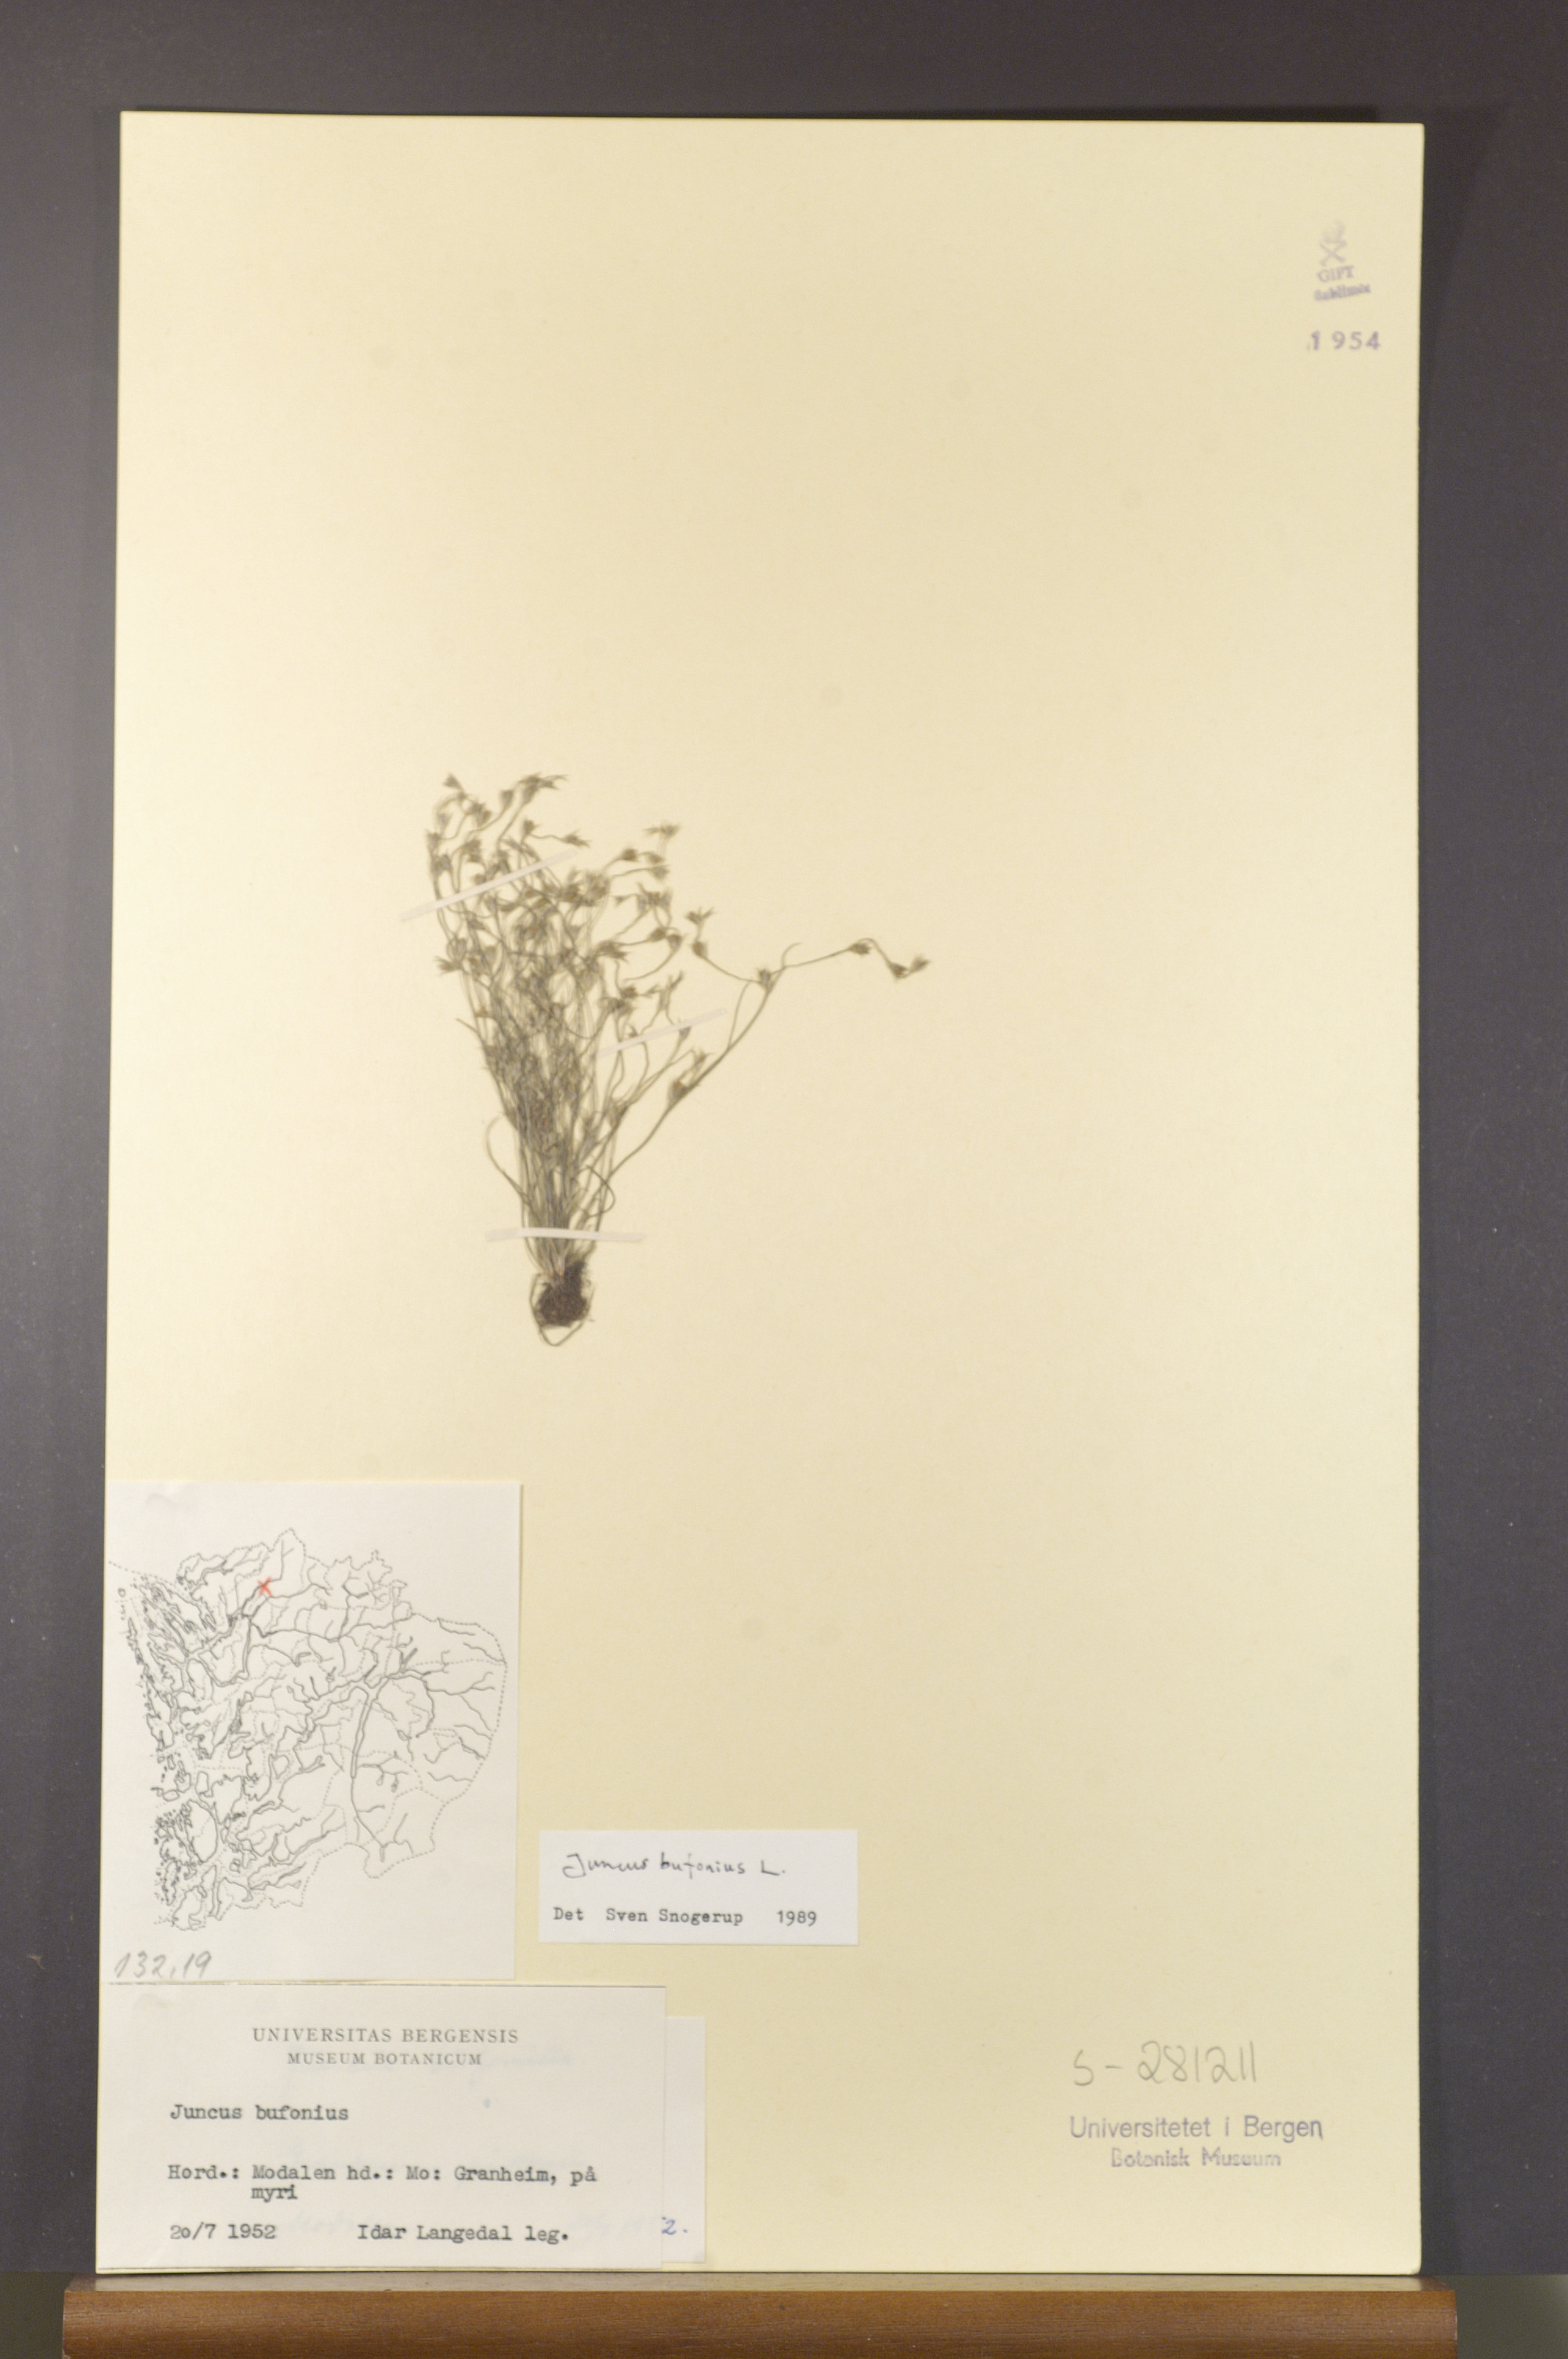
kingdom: Plantae
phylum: Tracheophyta
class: Liliopsida
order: Poales
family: Juncaceae
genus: Juncus
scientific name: Juncus bufonius
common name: Toad rush
